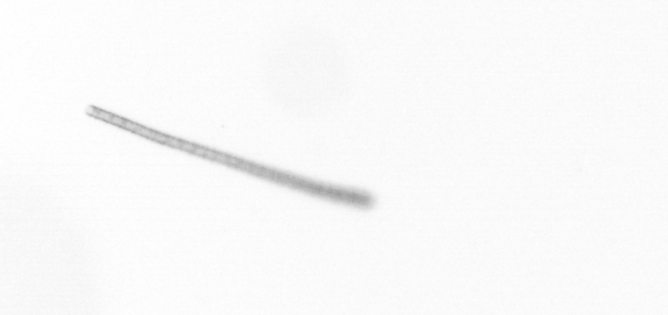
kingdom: Chromista
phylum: Ochrophyta
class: Bacillariophyceae
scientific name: Bacillariophyceae
